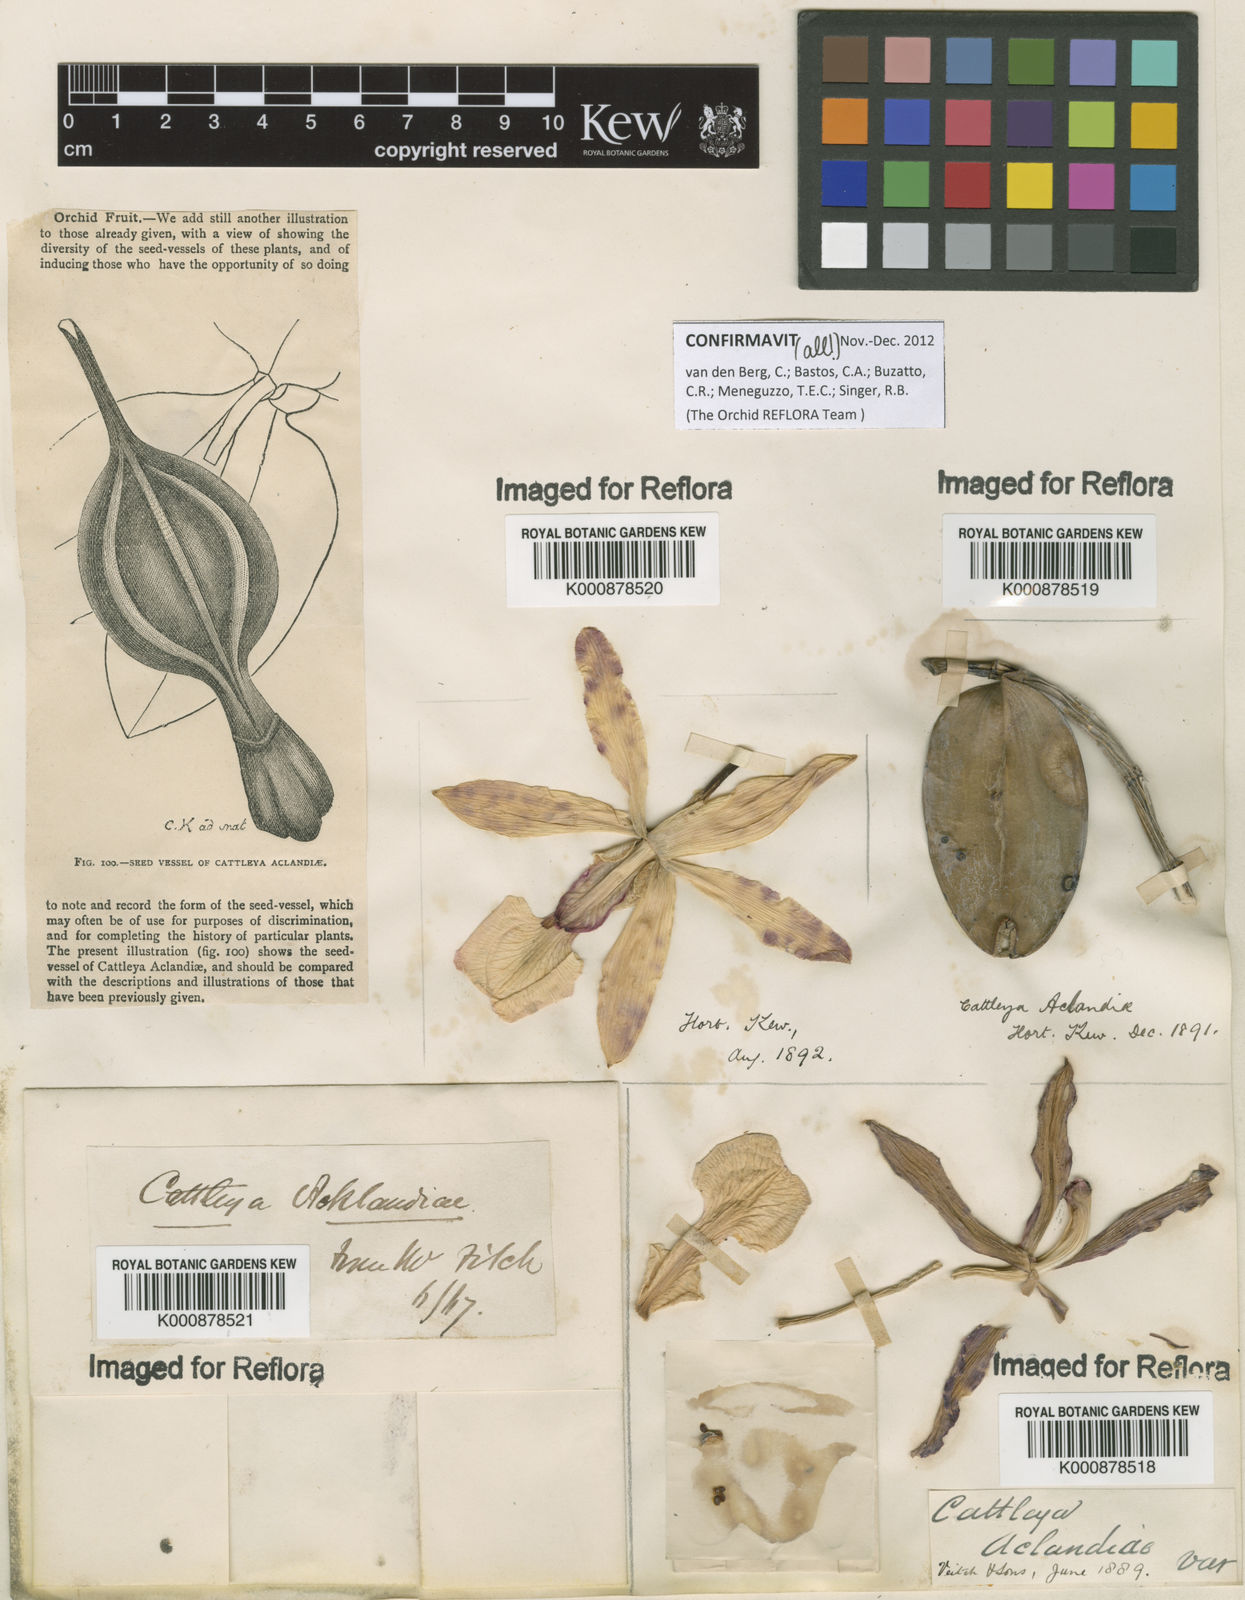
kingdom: Plantae
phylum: Tracheophyta
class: Liliopsida
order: Asparagales
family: Orchidaceae
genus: Cattleya
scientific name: Cattleya aclandiae
